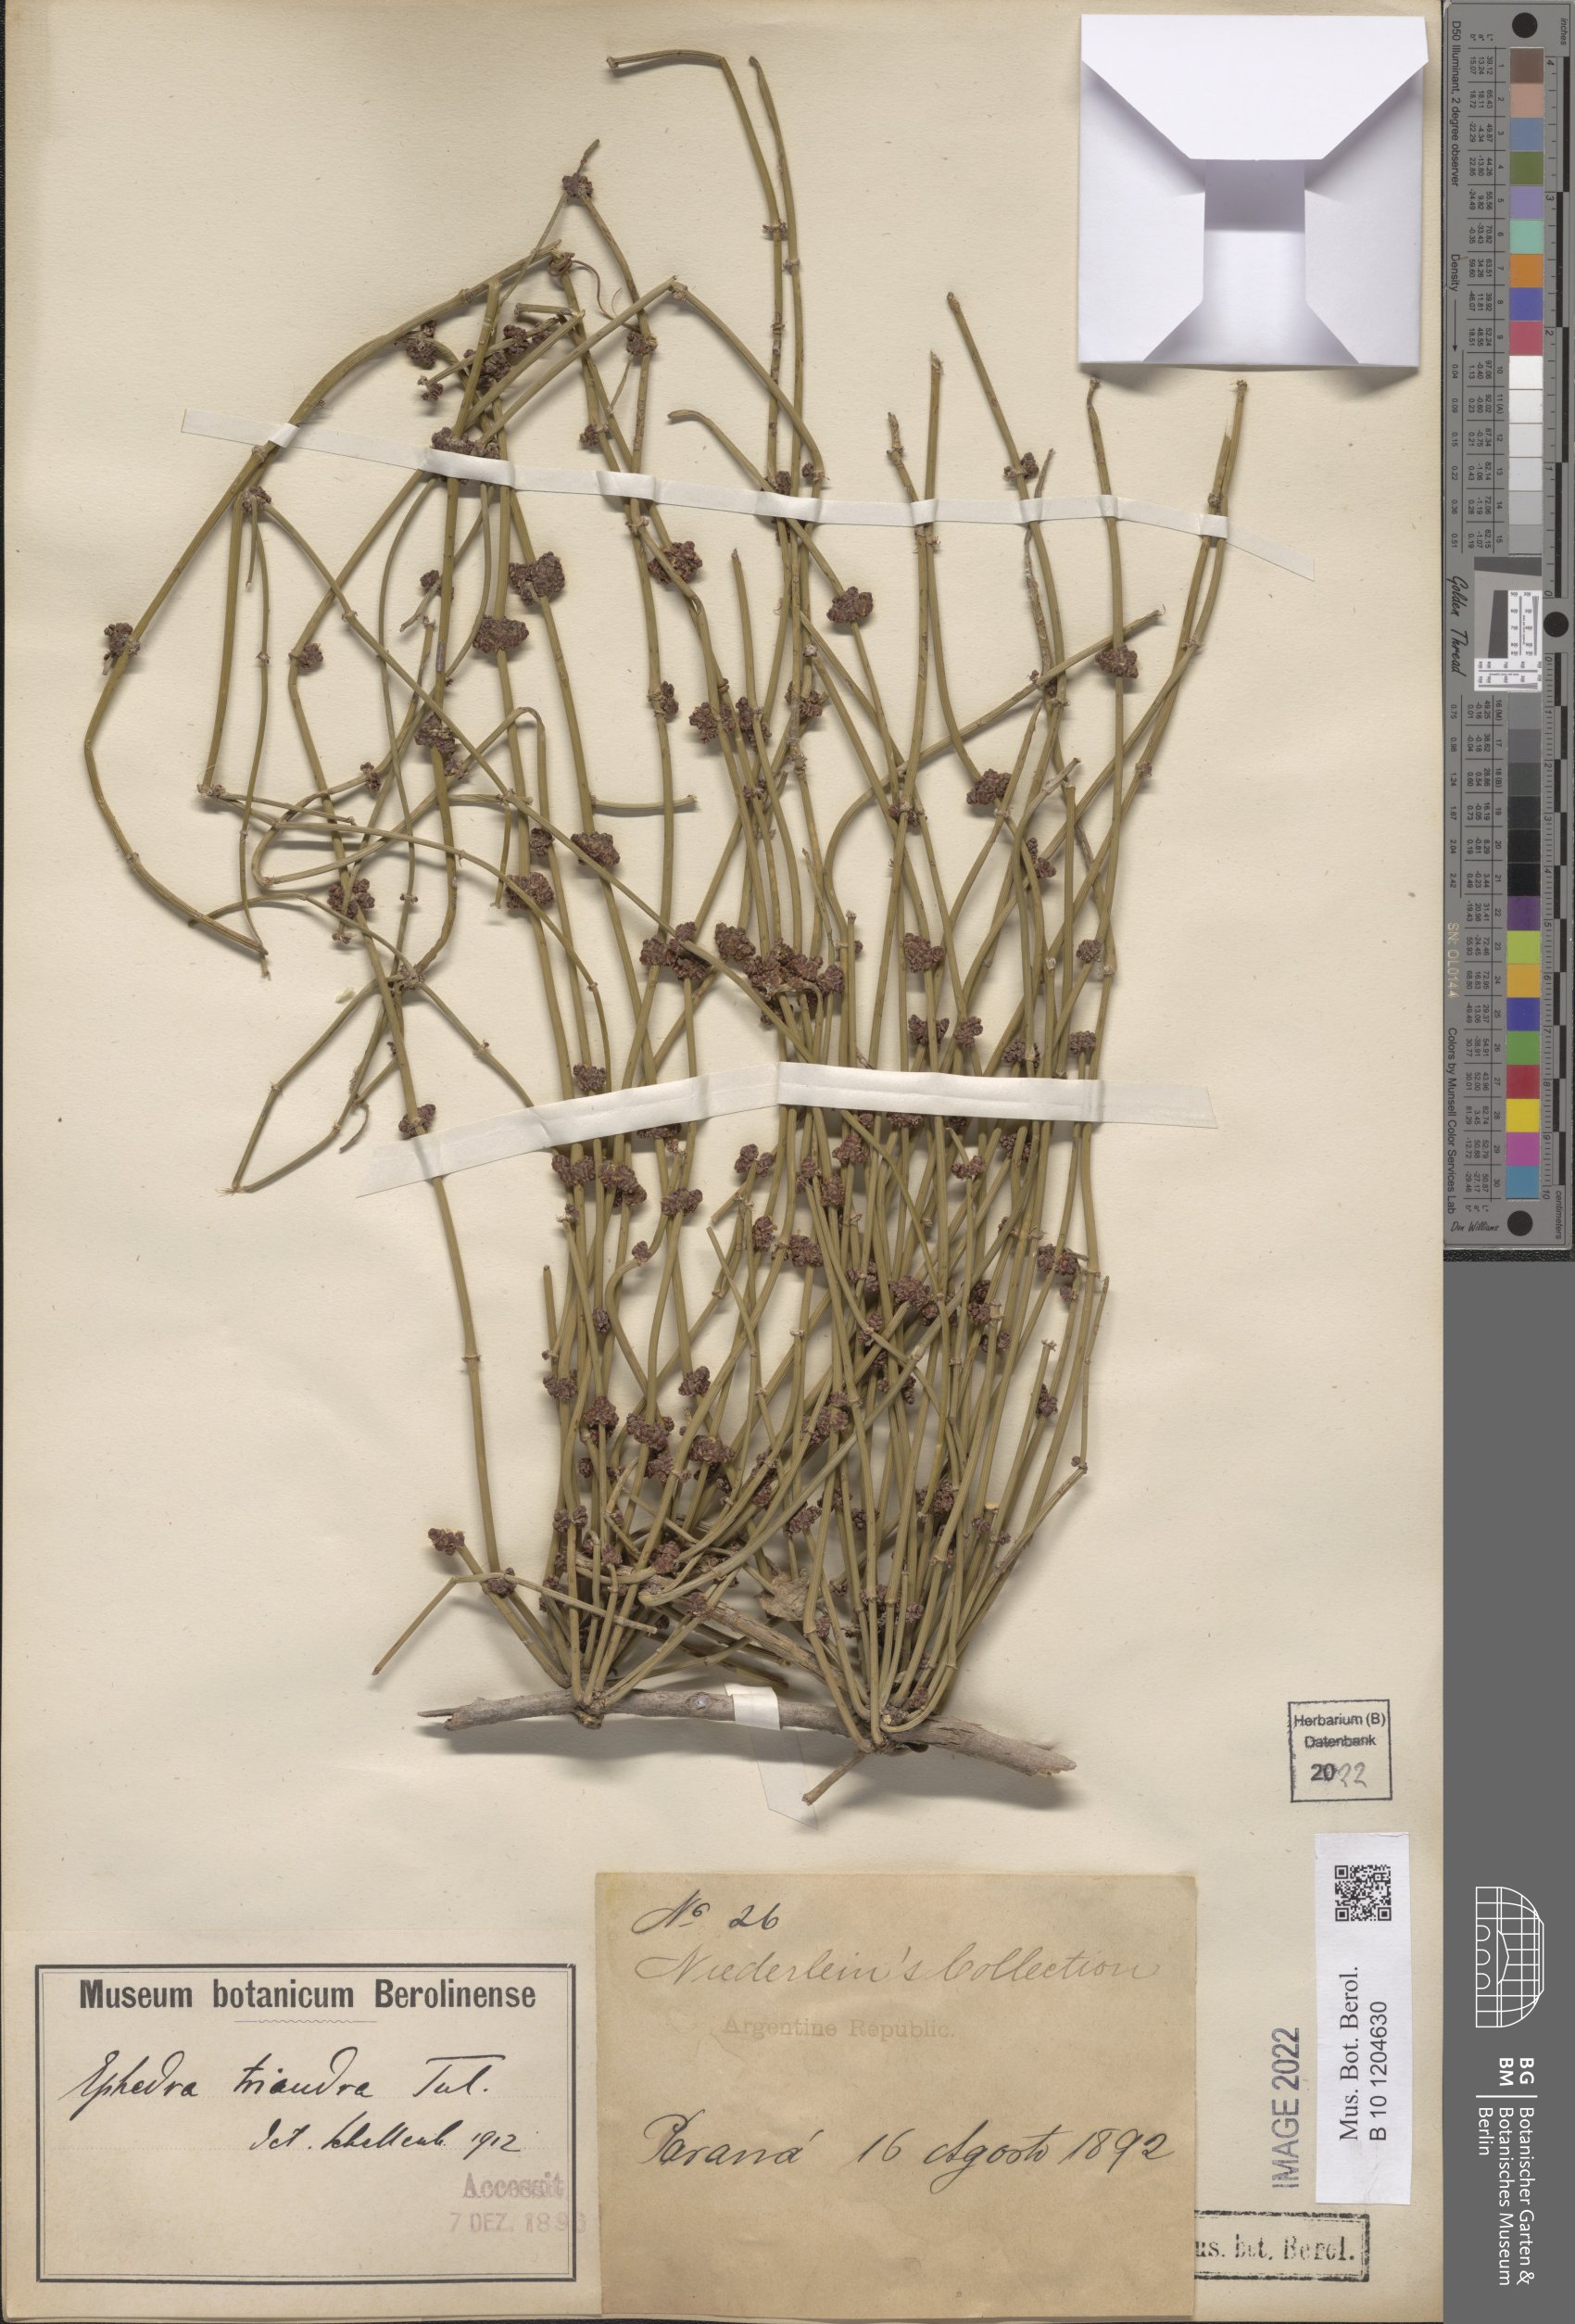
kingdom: Plantae
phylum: Tracheophyta
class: Gnetopsida
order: Ephedrales
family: Ephedraceae
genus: Ephedra
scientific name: Ephedra triandra
